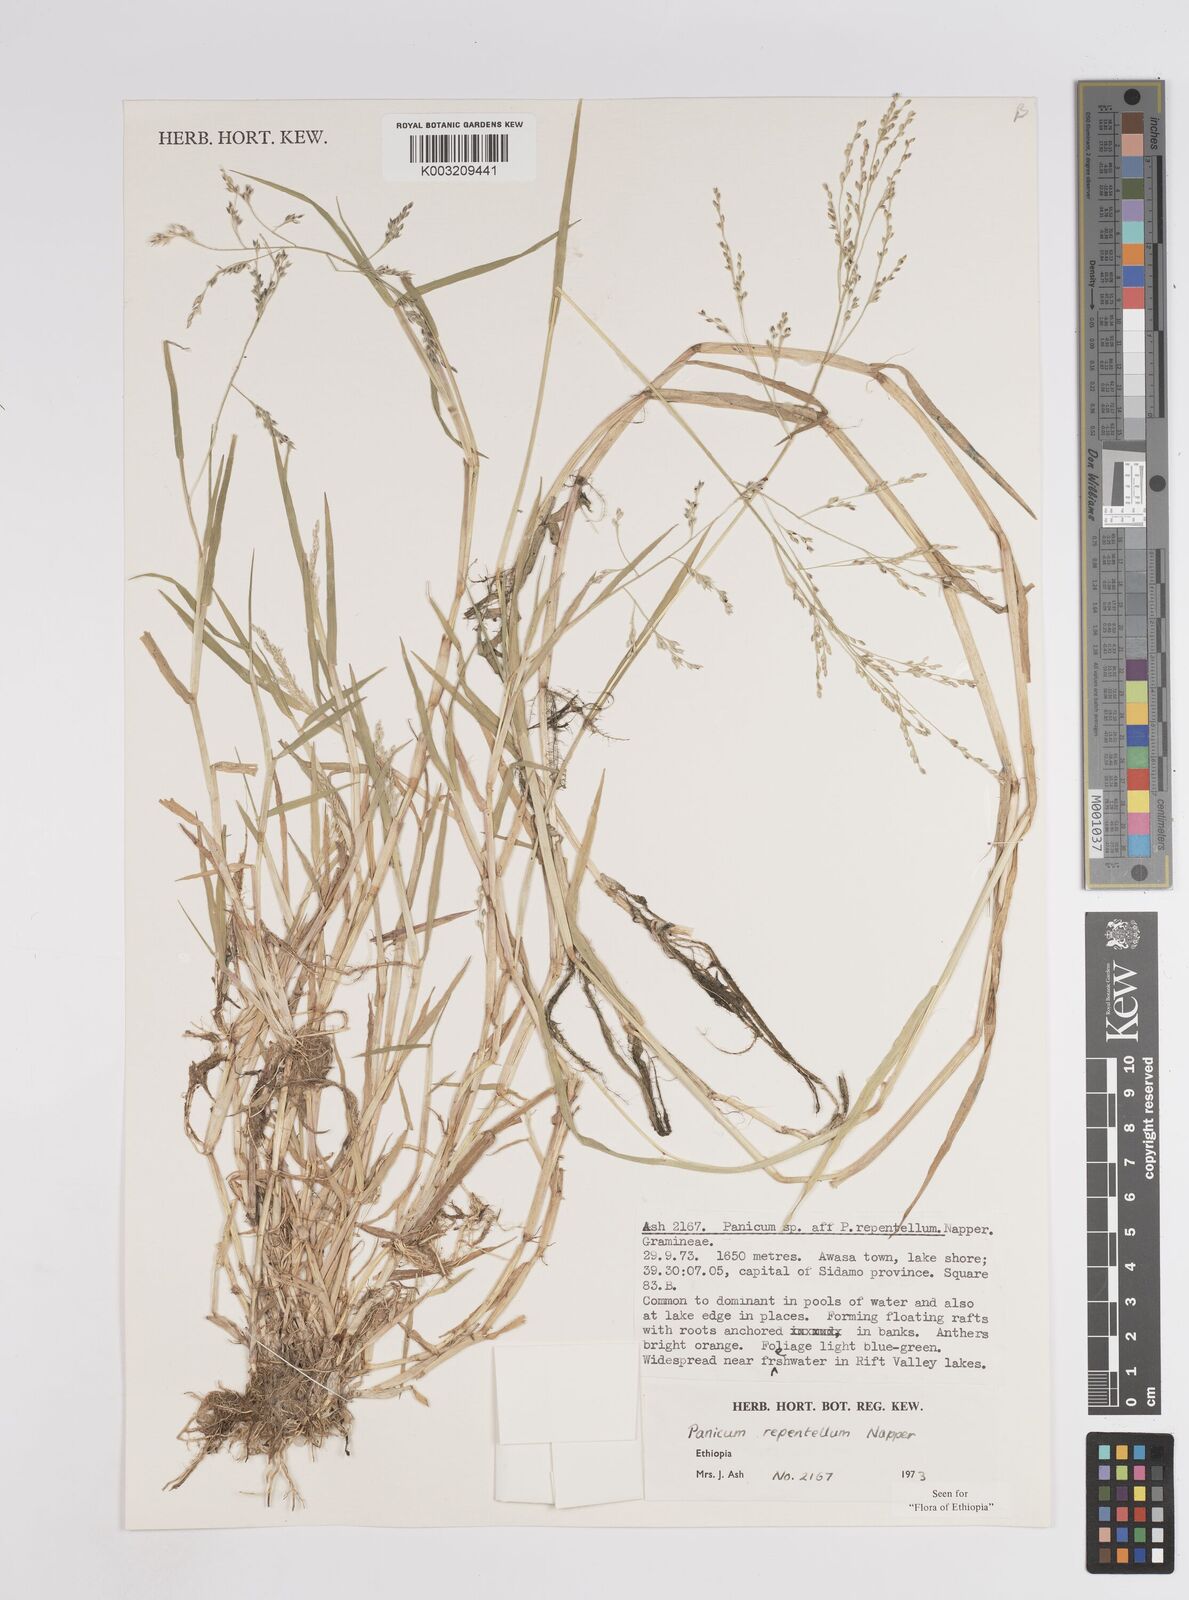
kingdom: Plantae
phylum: Tracheophyta
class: Liliopsida
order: Poales
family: Poaceae
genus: Panicum
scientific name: Panicum hygrocharis
